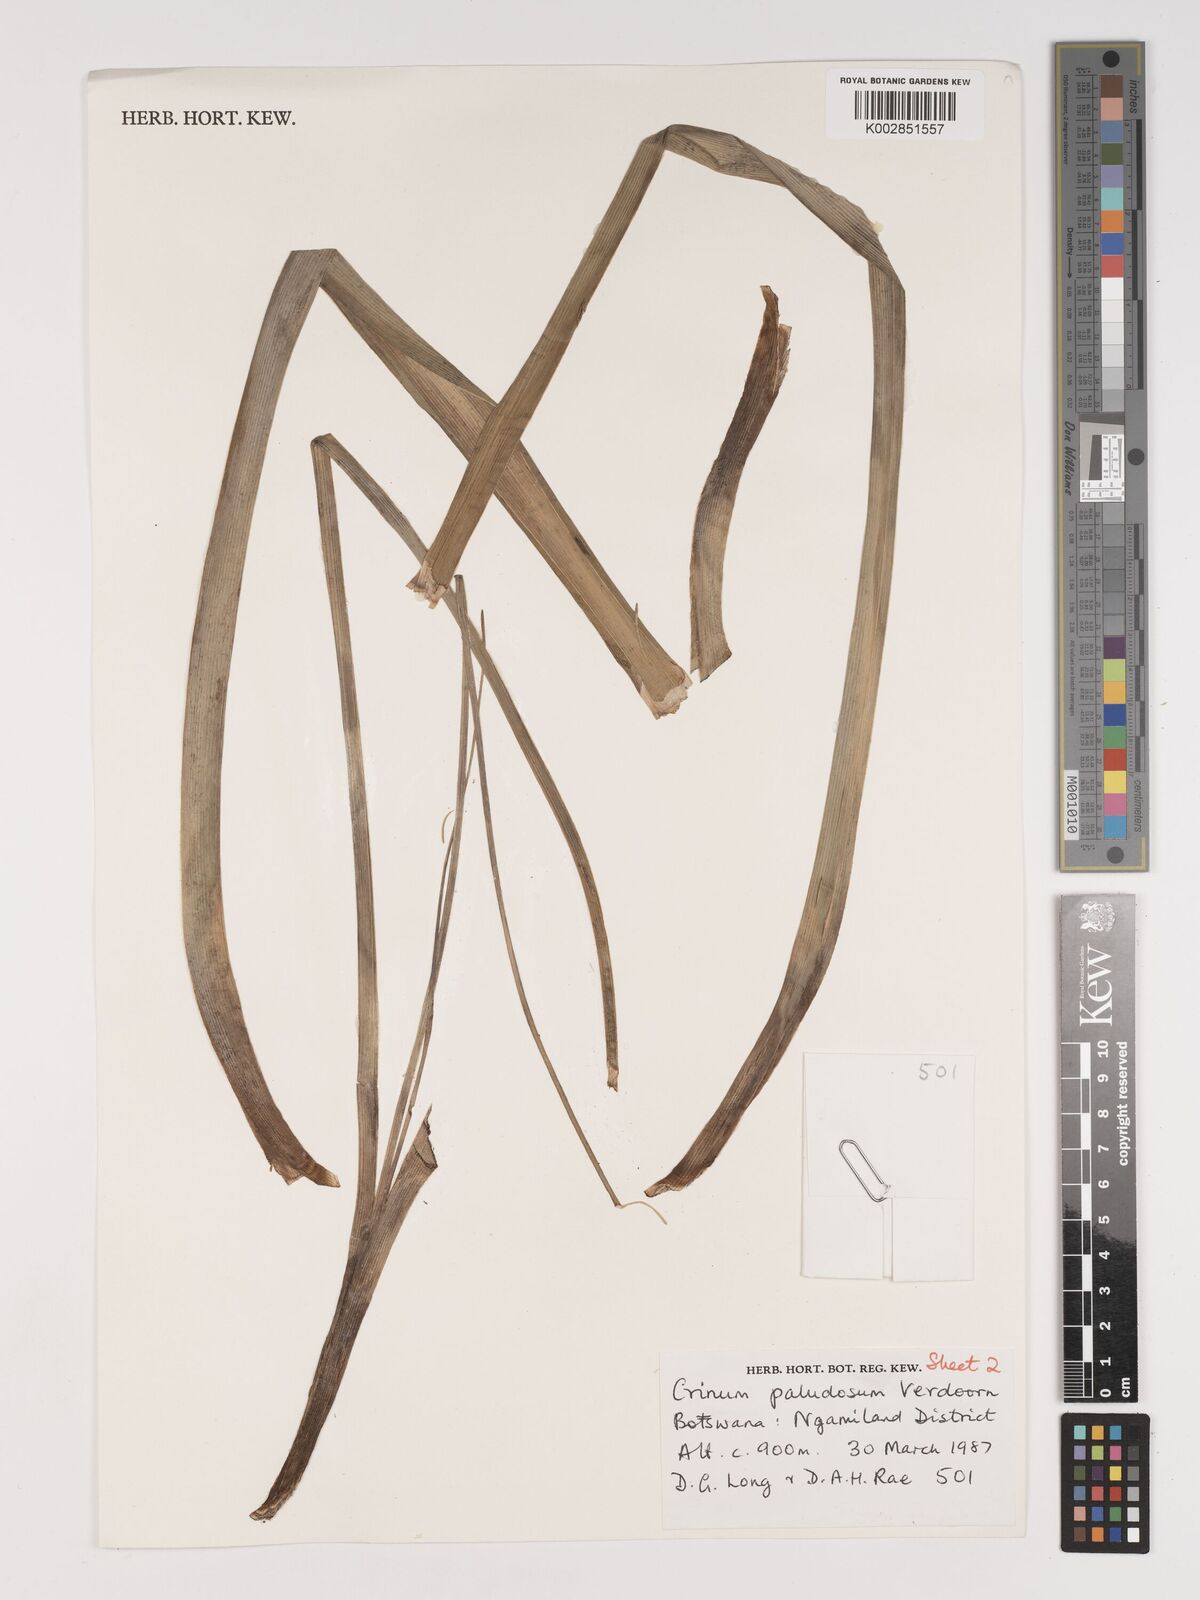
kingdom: Plantae
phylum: Tracheophyta
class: Liliopsida
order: Asparagales
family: Amaryllidaceae
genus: Crinum
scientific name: Crinum paludosum
